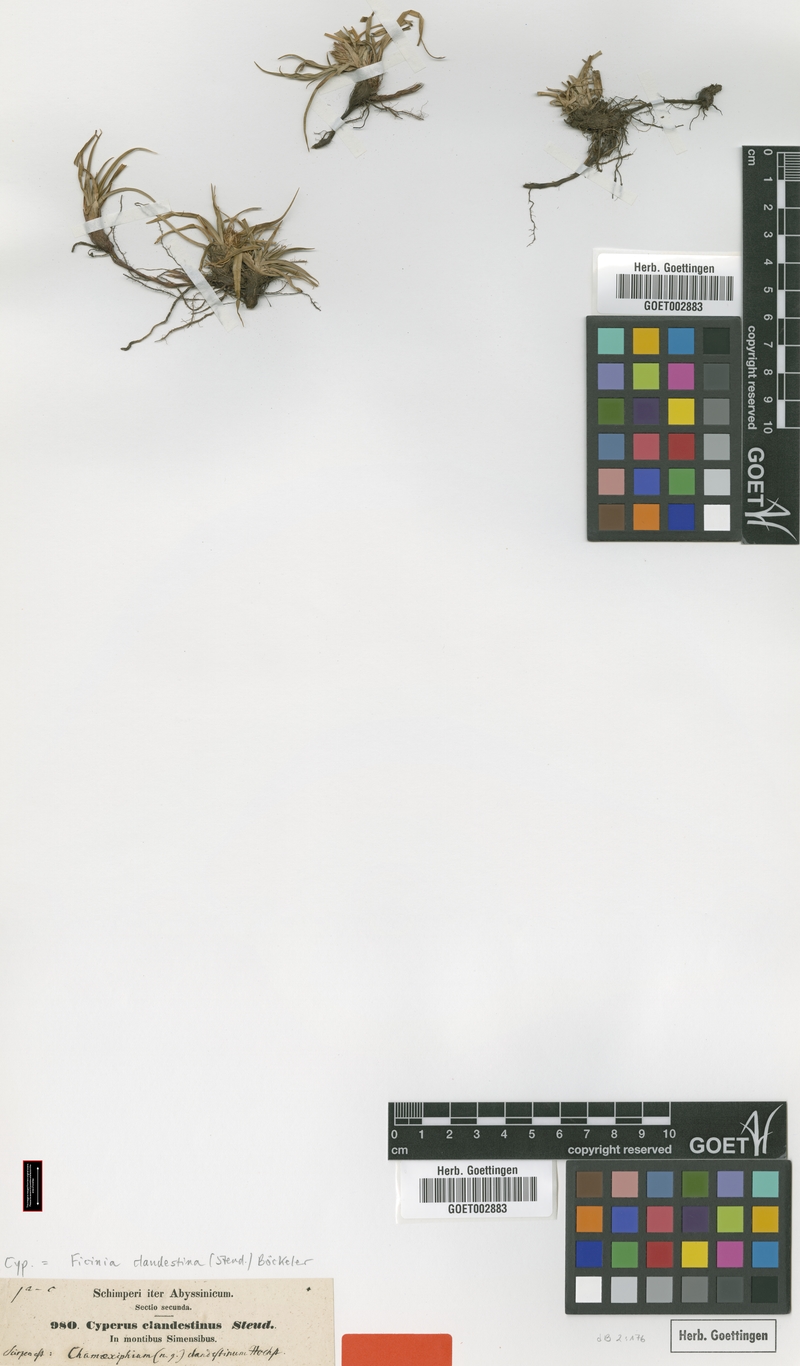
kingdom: Plantae
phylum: Tracheophyta
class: Liliopsida
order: Poales
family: Cyperaceae
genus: Cyperus
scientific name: Cyperus clandestinus
